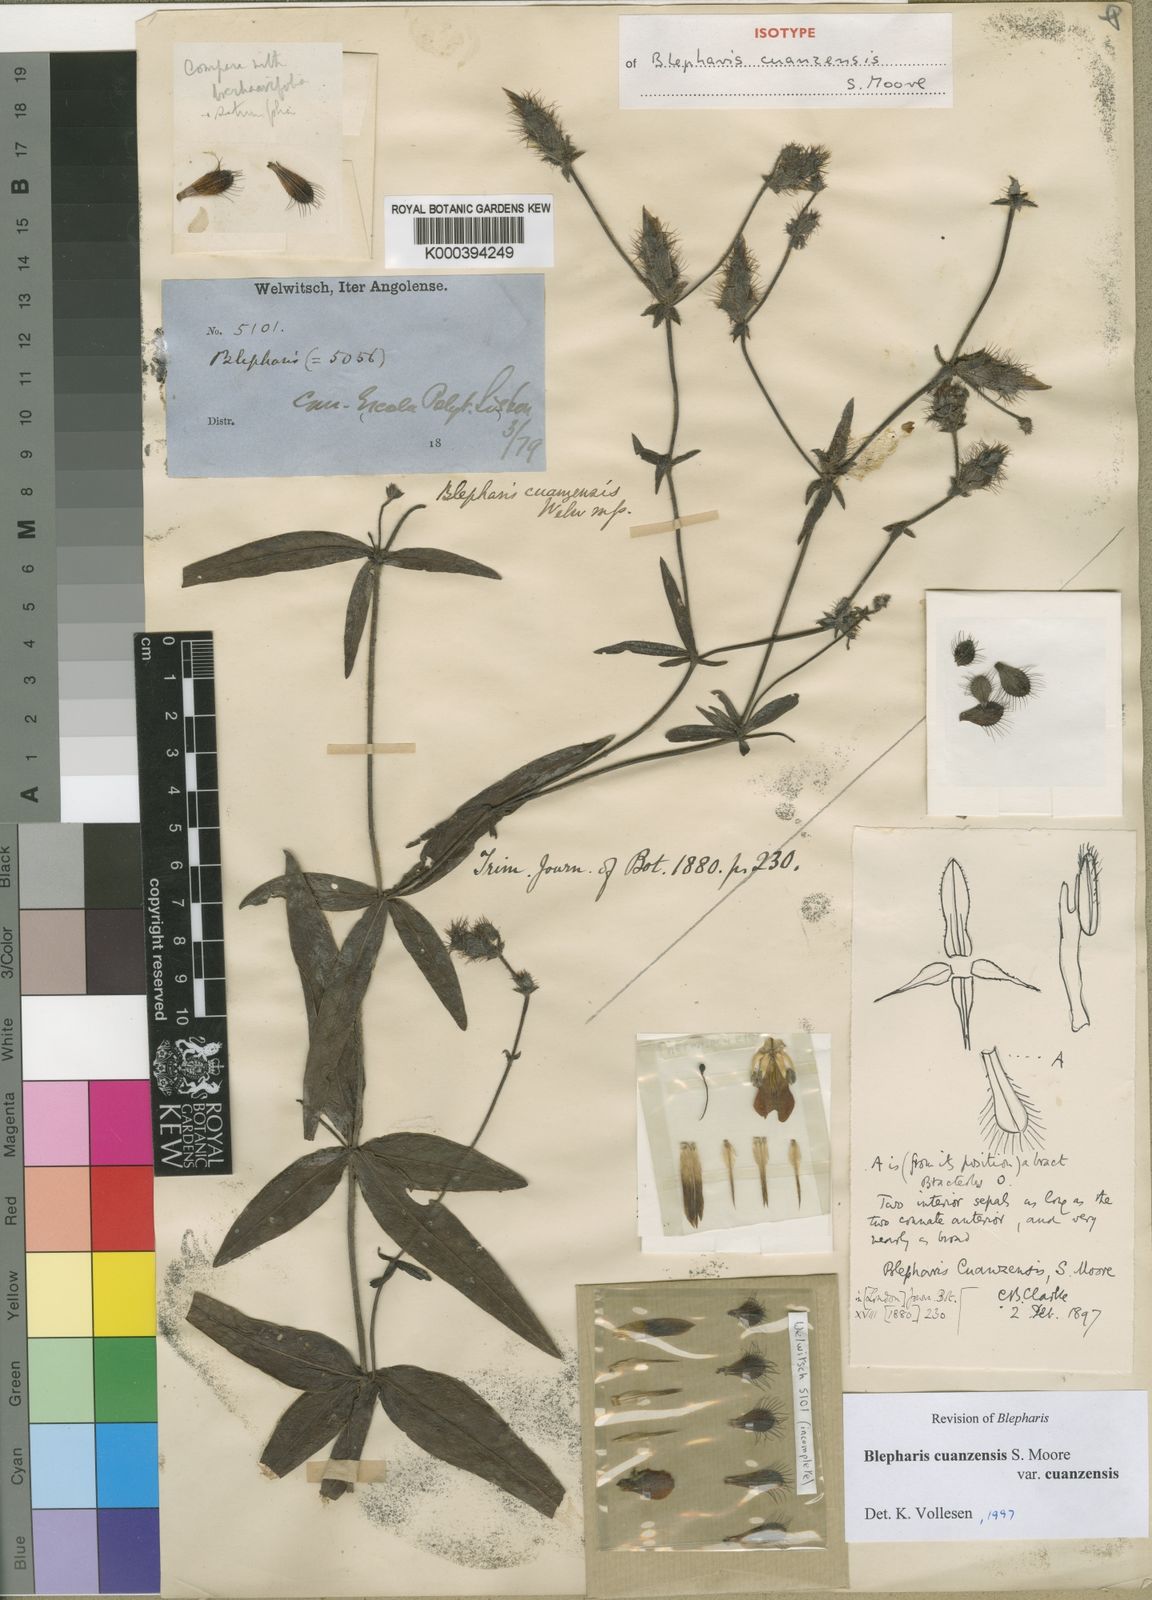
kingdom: Plantae
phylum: Tracheophyta
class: Magnoliopsida
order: Lamiales
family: Acanthaceae
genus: Blepharis
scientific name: Blepharis cuanzensis
